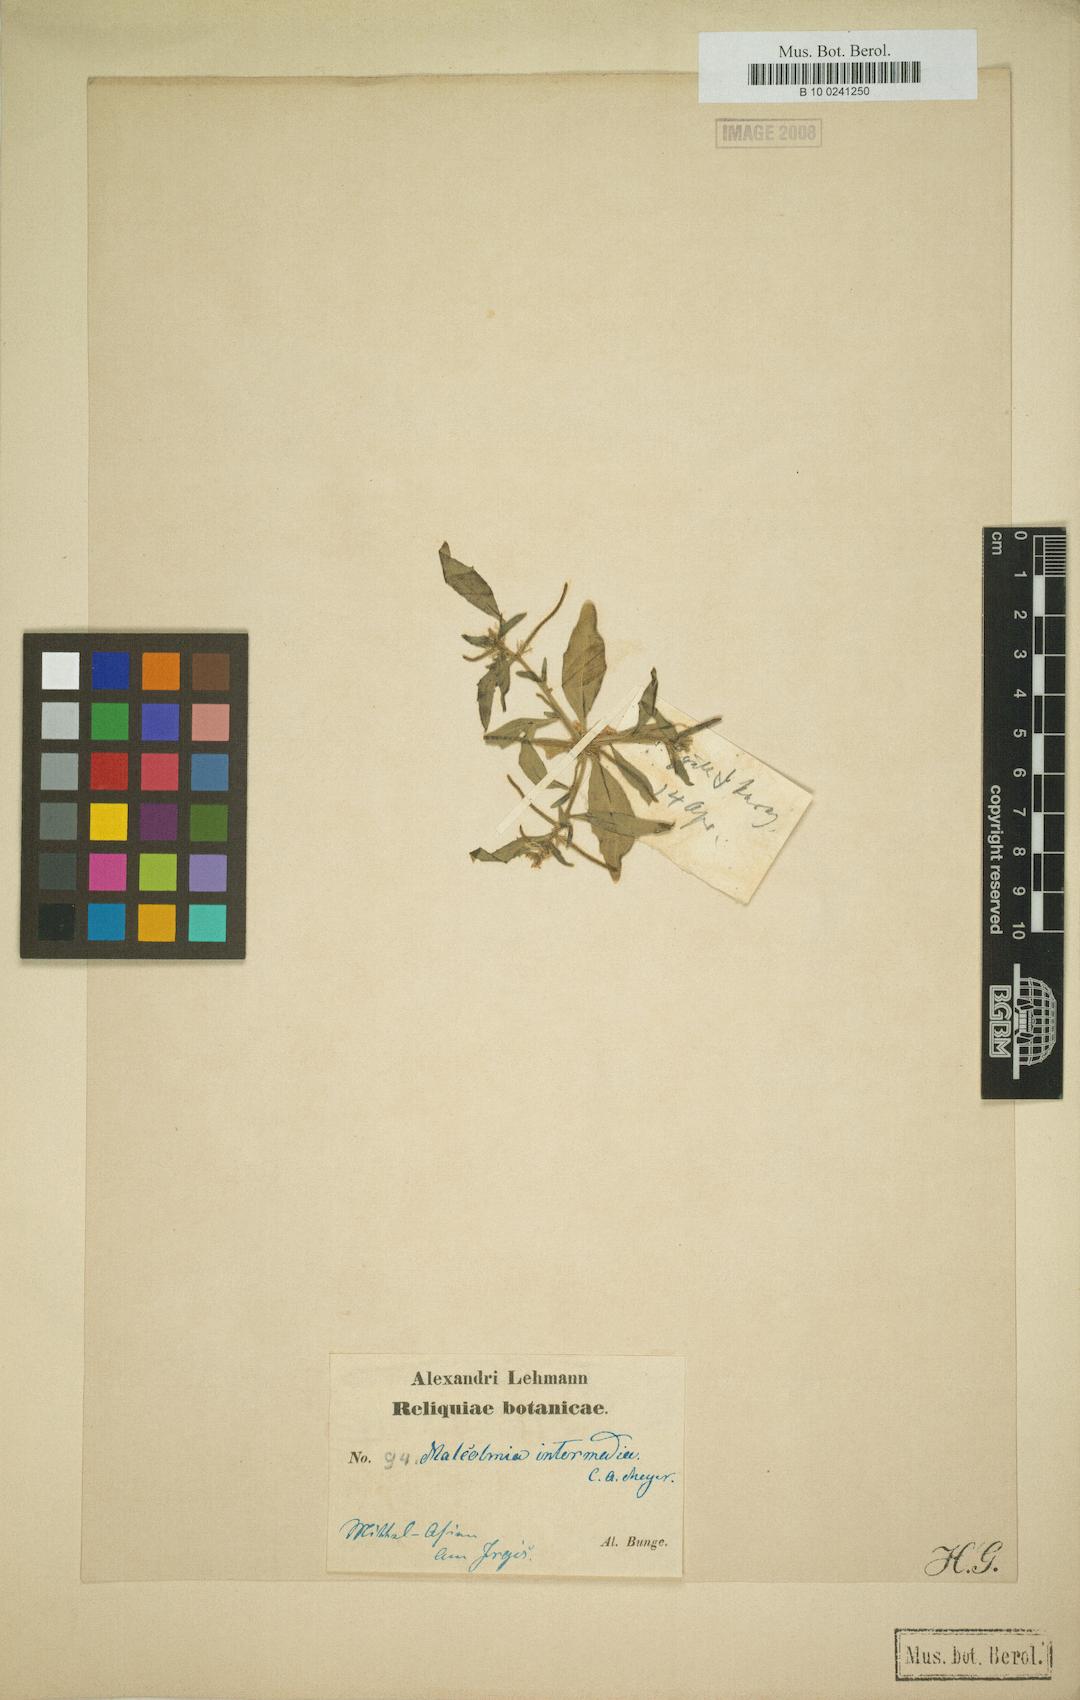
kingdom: Plantae
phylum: Tracheophyta
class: Magnoliopsida
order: Brassicales
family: Brassicaceae
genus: Strigosella
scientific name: Strigosella intermedia
